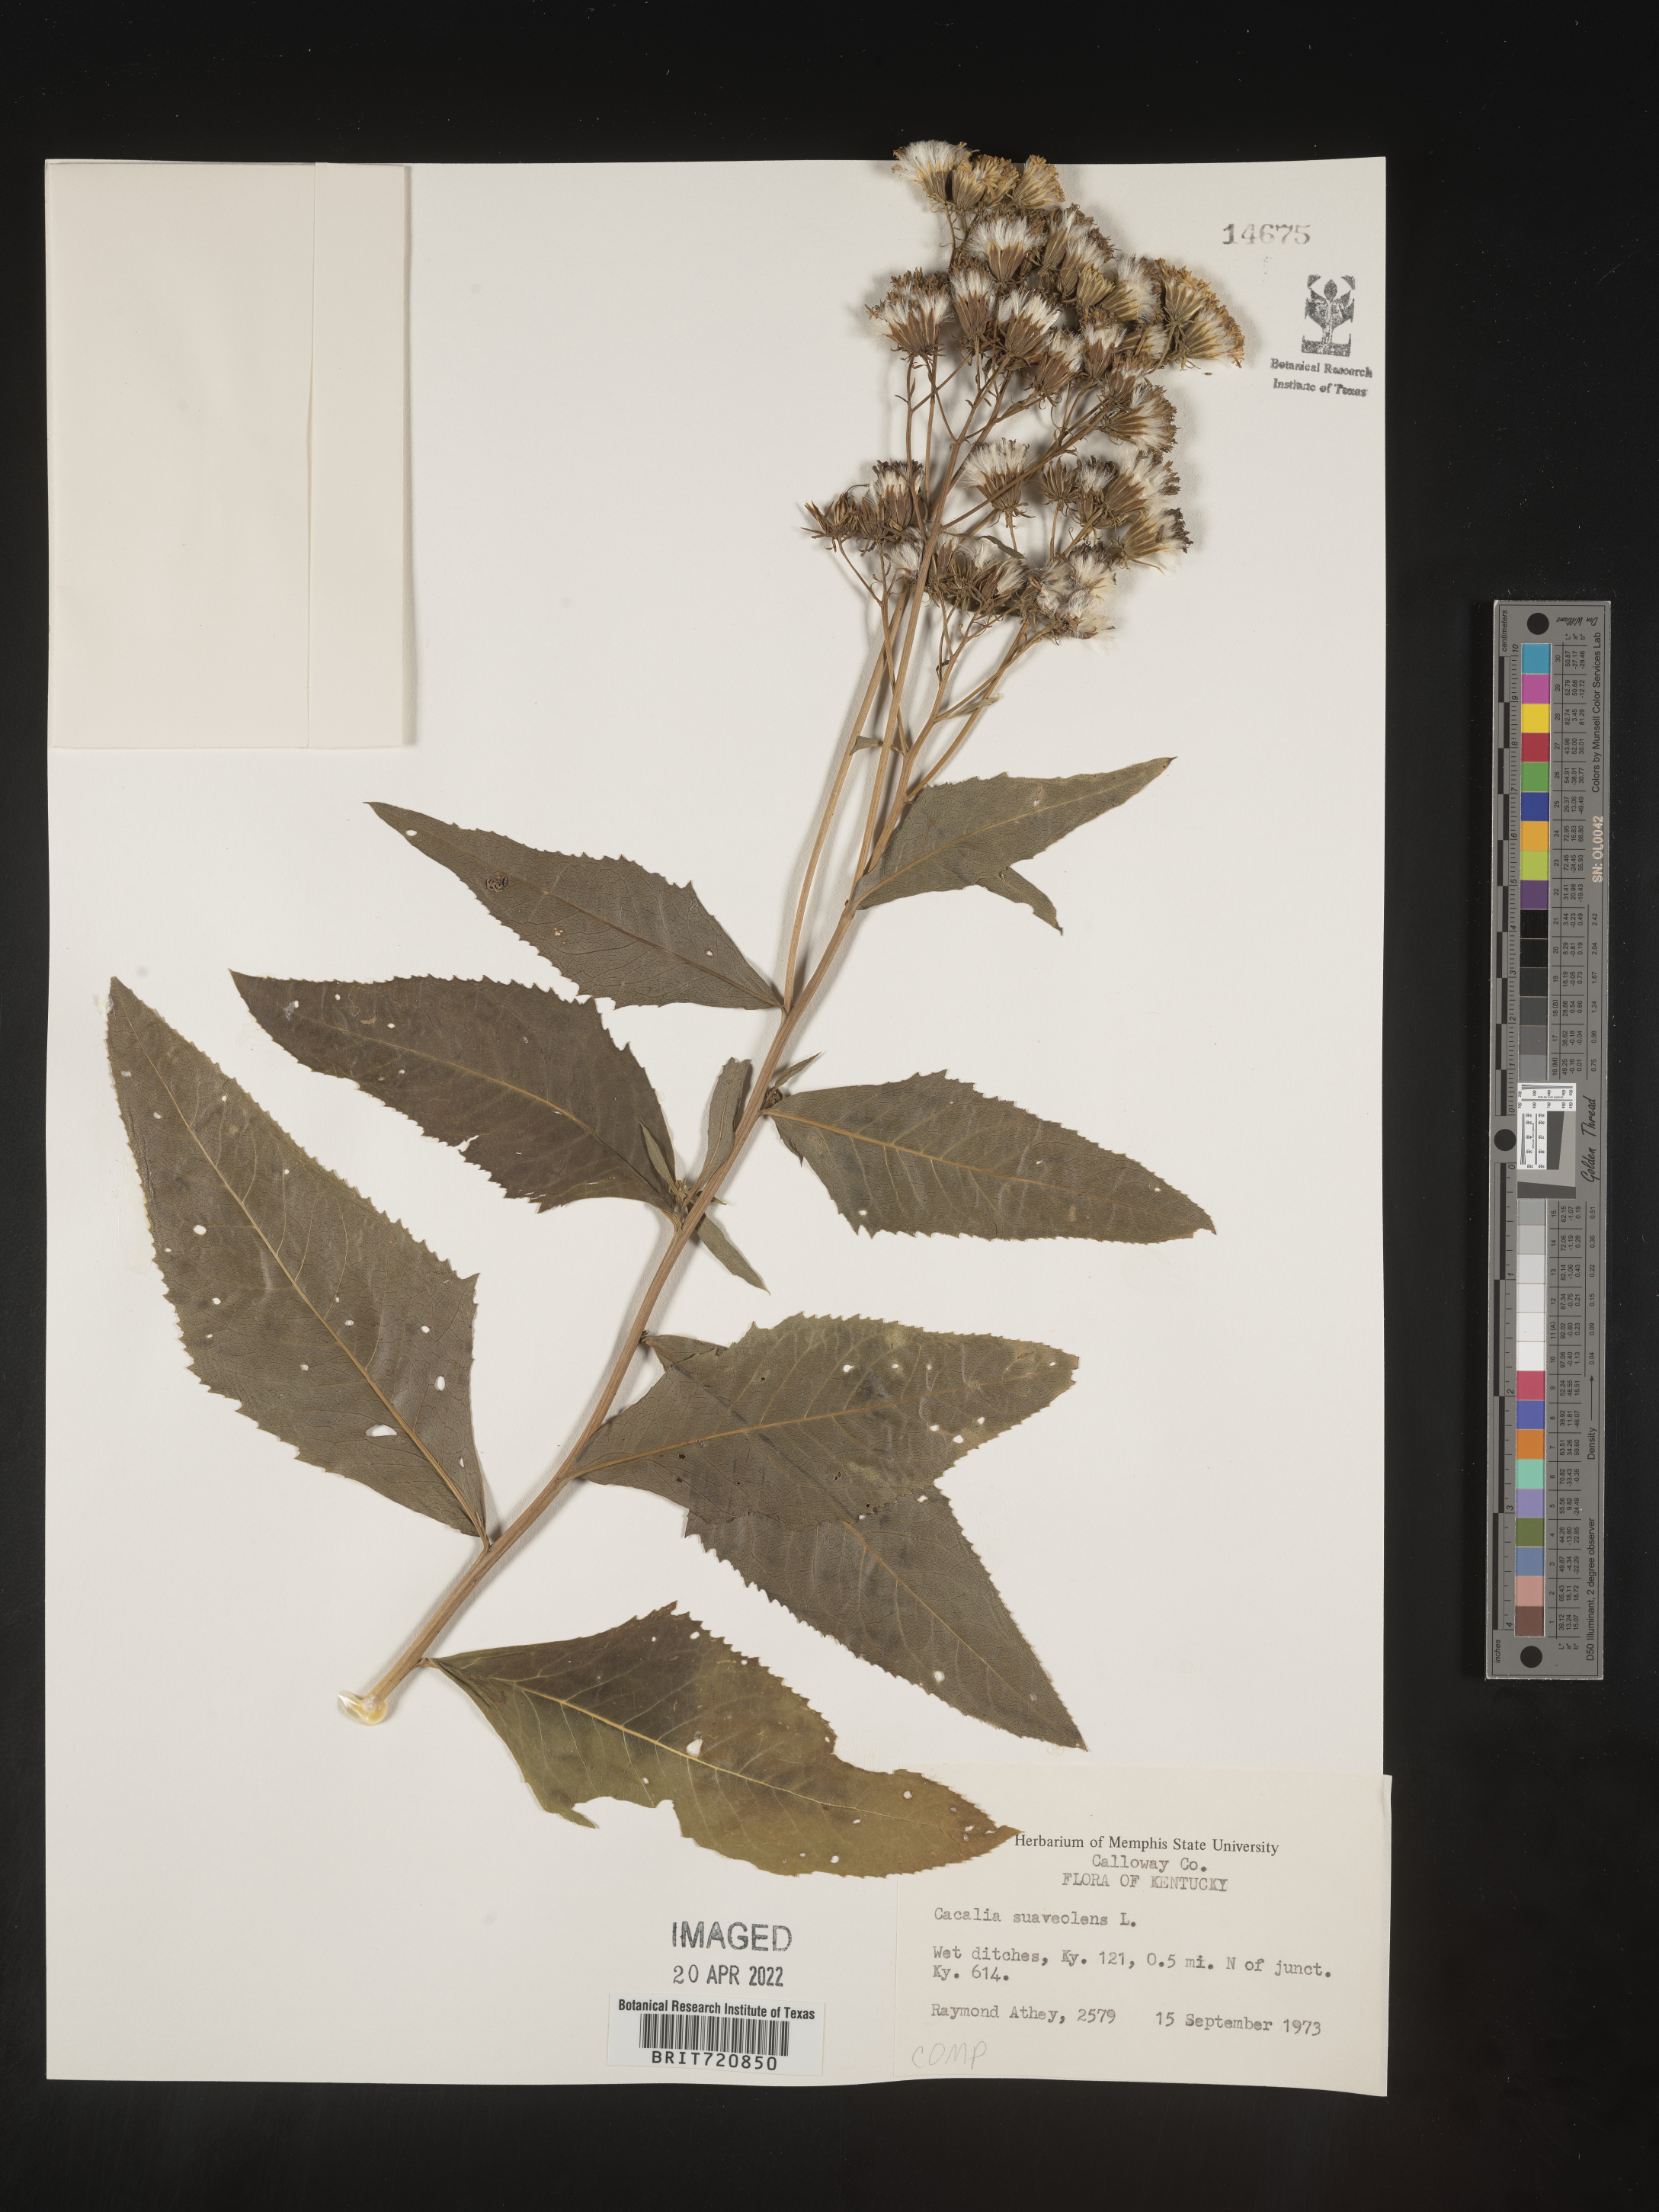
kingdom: Plantae
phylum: Tracheophyta
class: Magnoliopsida
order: Asterales
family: Asteraceae
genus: Hasteola
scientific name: Hasteola suaveolens
